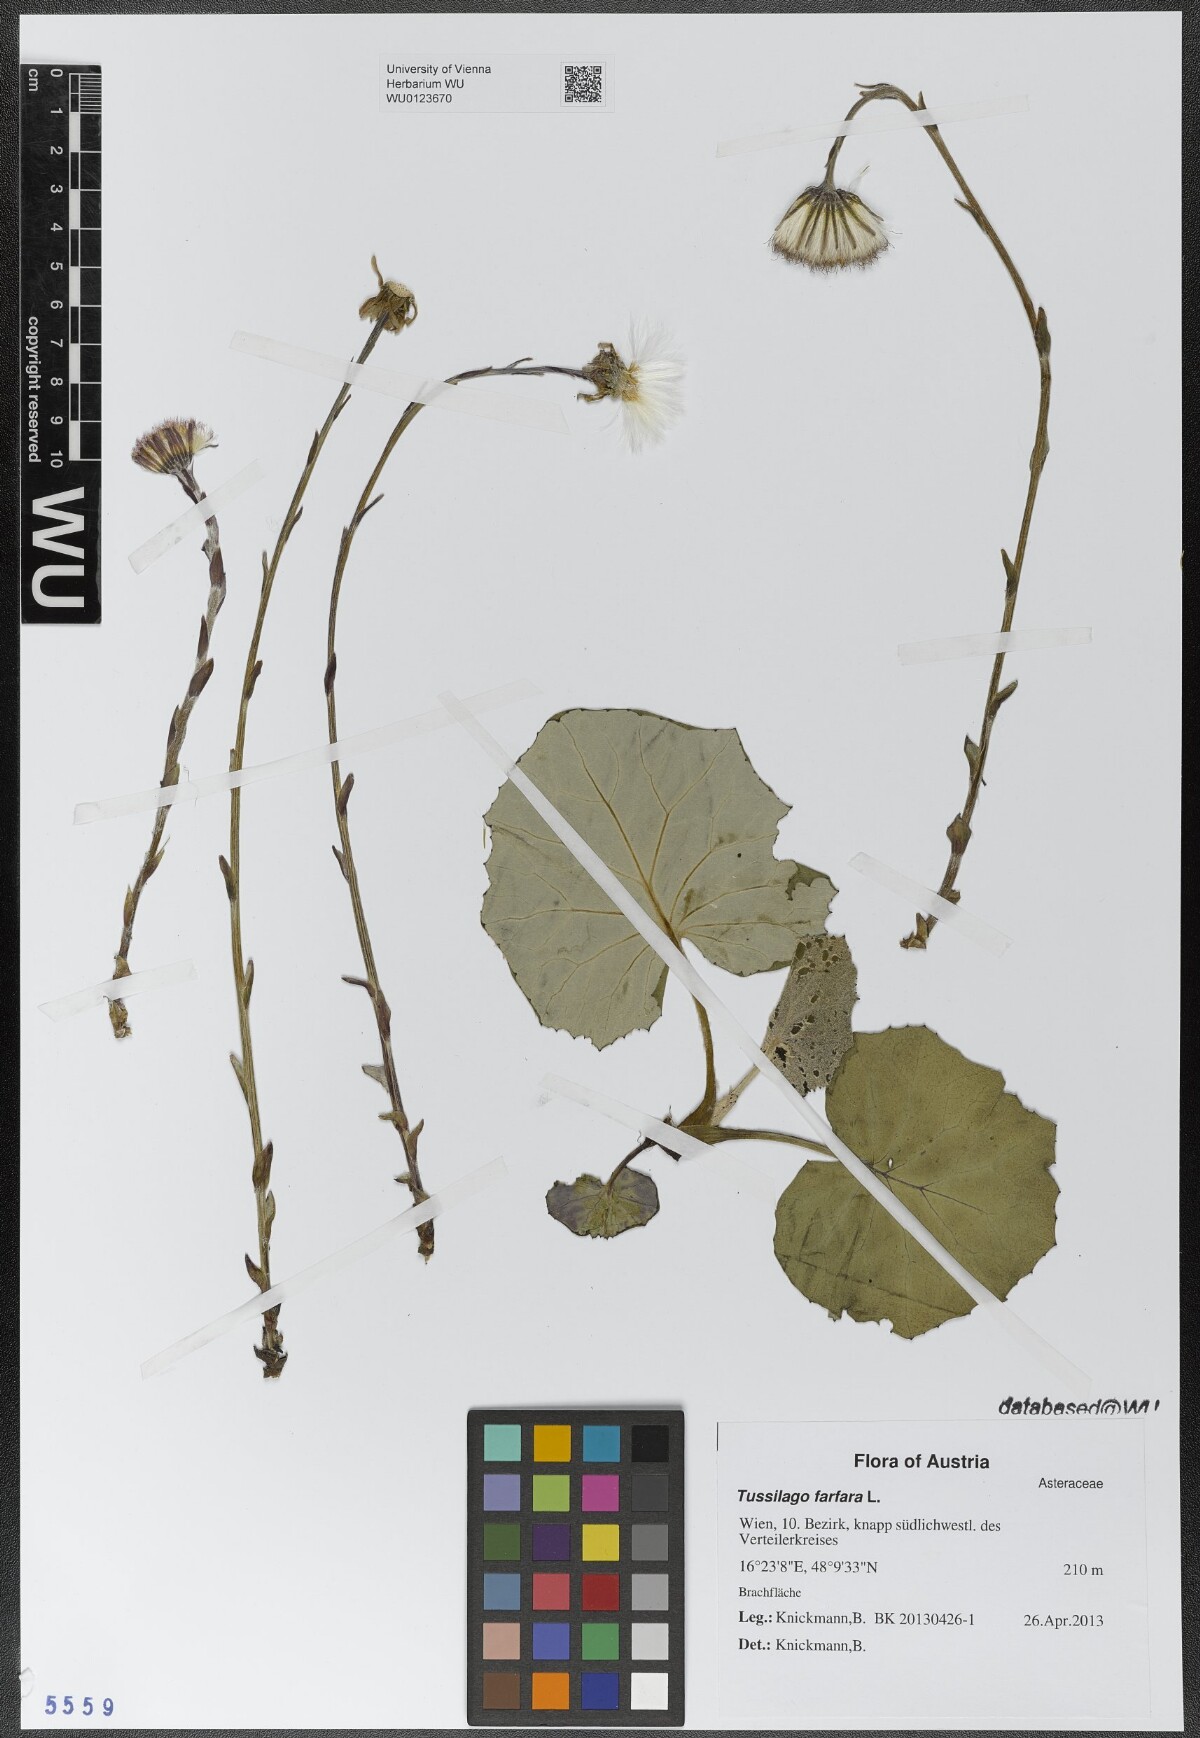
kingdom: Plantae
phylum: Tracheophyta
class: Magnoliopsida
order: Asterales
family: Asteraceae
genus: Tussilago
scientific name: Tussilago farfara
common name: Coltsfoot
